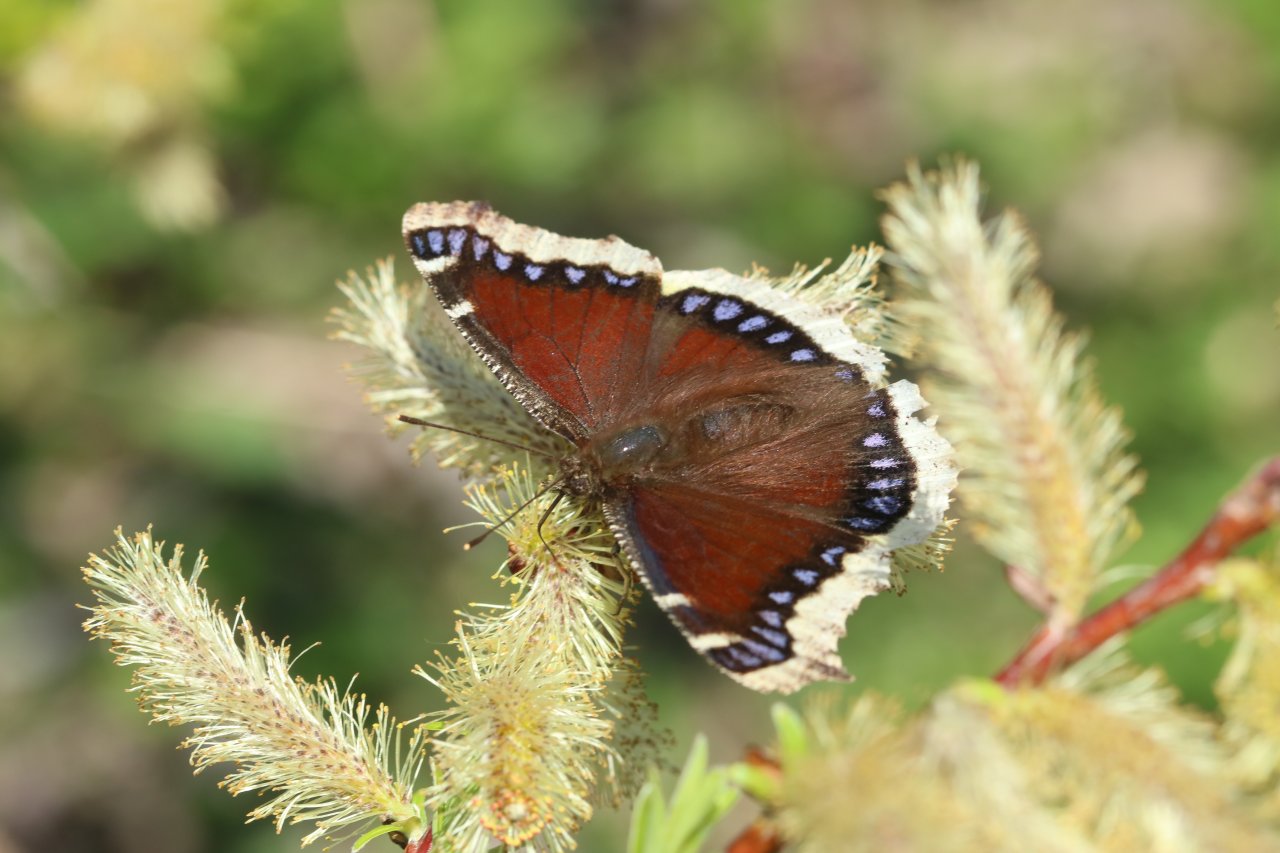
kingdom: Animalia
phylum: Arthropoda
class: Insecta
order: Lepidoptera
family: Nymphalidae
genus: Nymphalis
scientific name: Nymphalis antiopa
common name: Mourning Cloak
